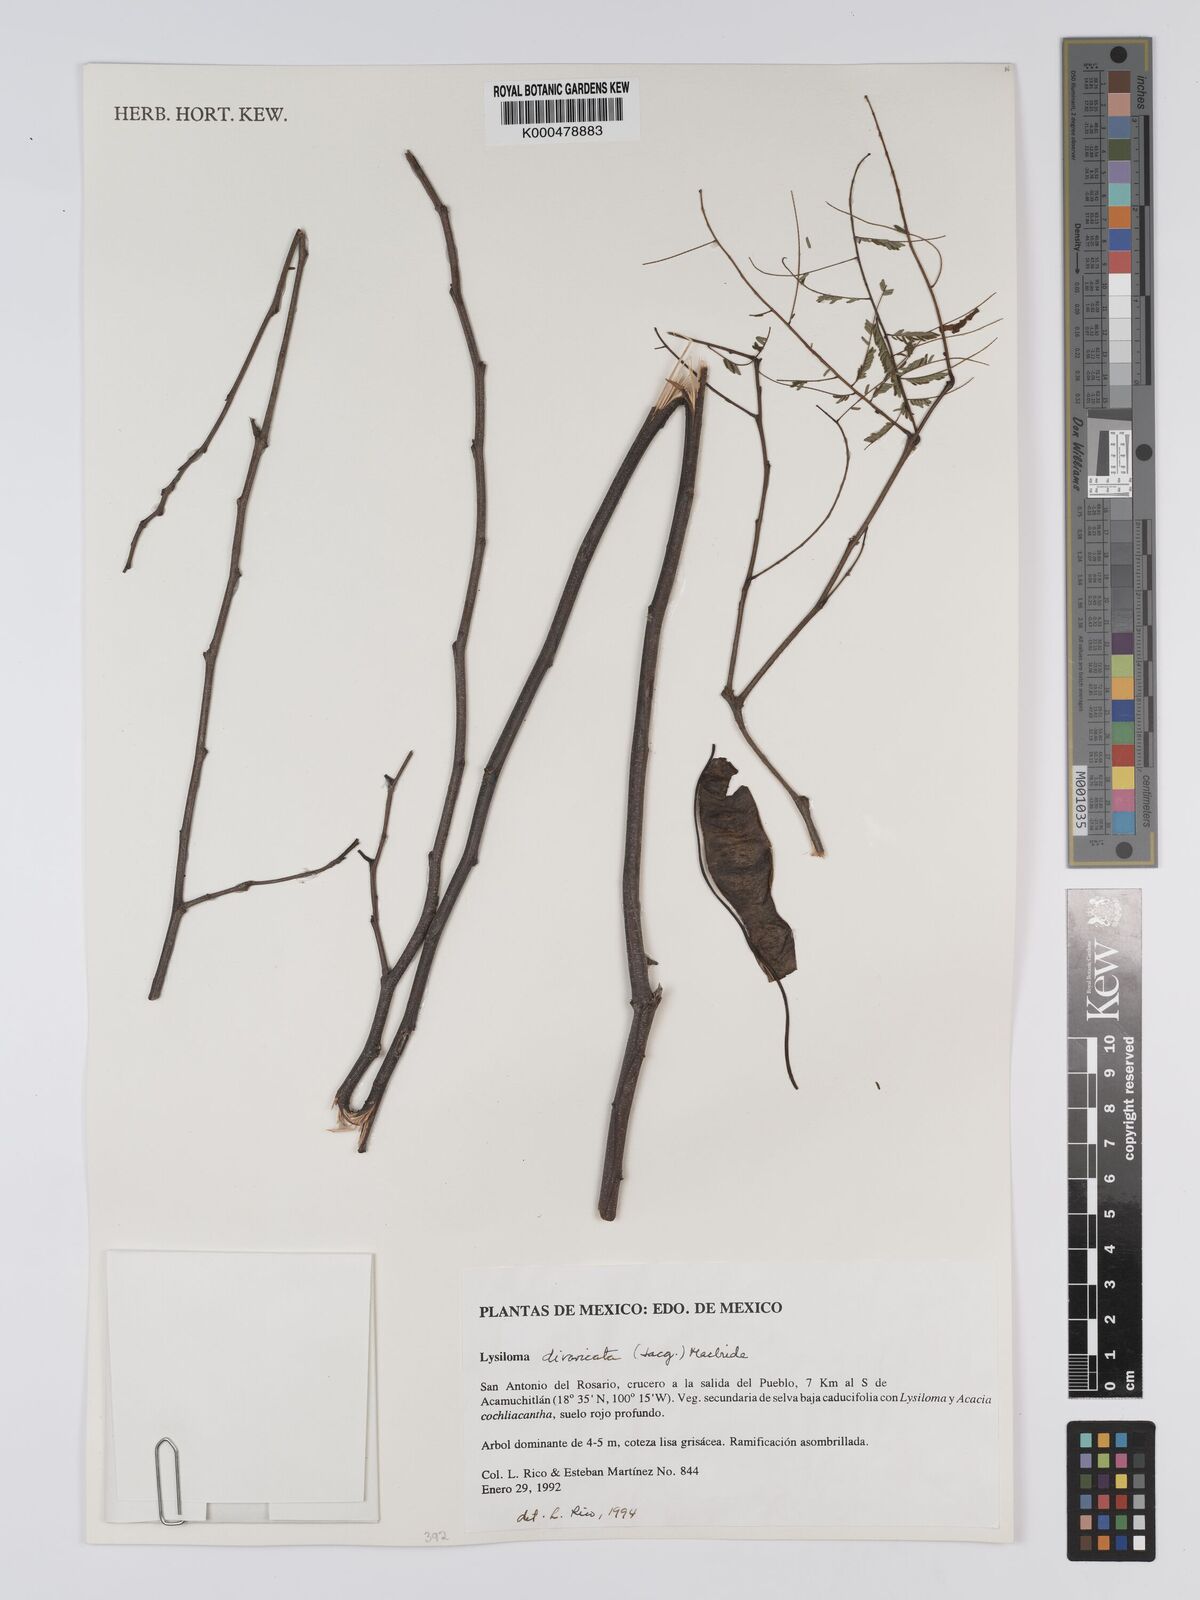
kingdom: Plantae
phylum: Tracheophyta
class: Magnoliopsida
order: Fabales
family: Fabaceae
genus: Lysiloma
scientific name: Lysiloma divaricatum
